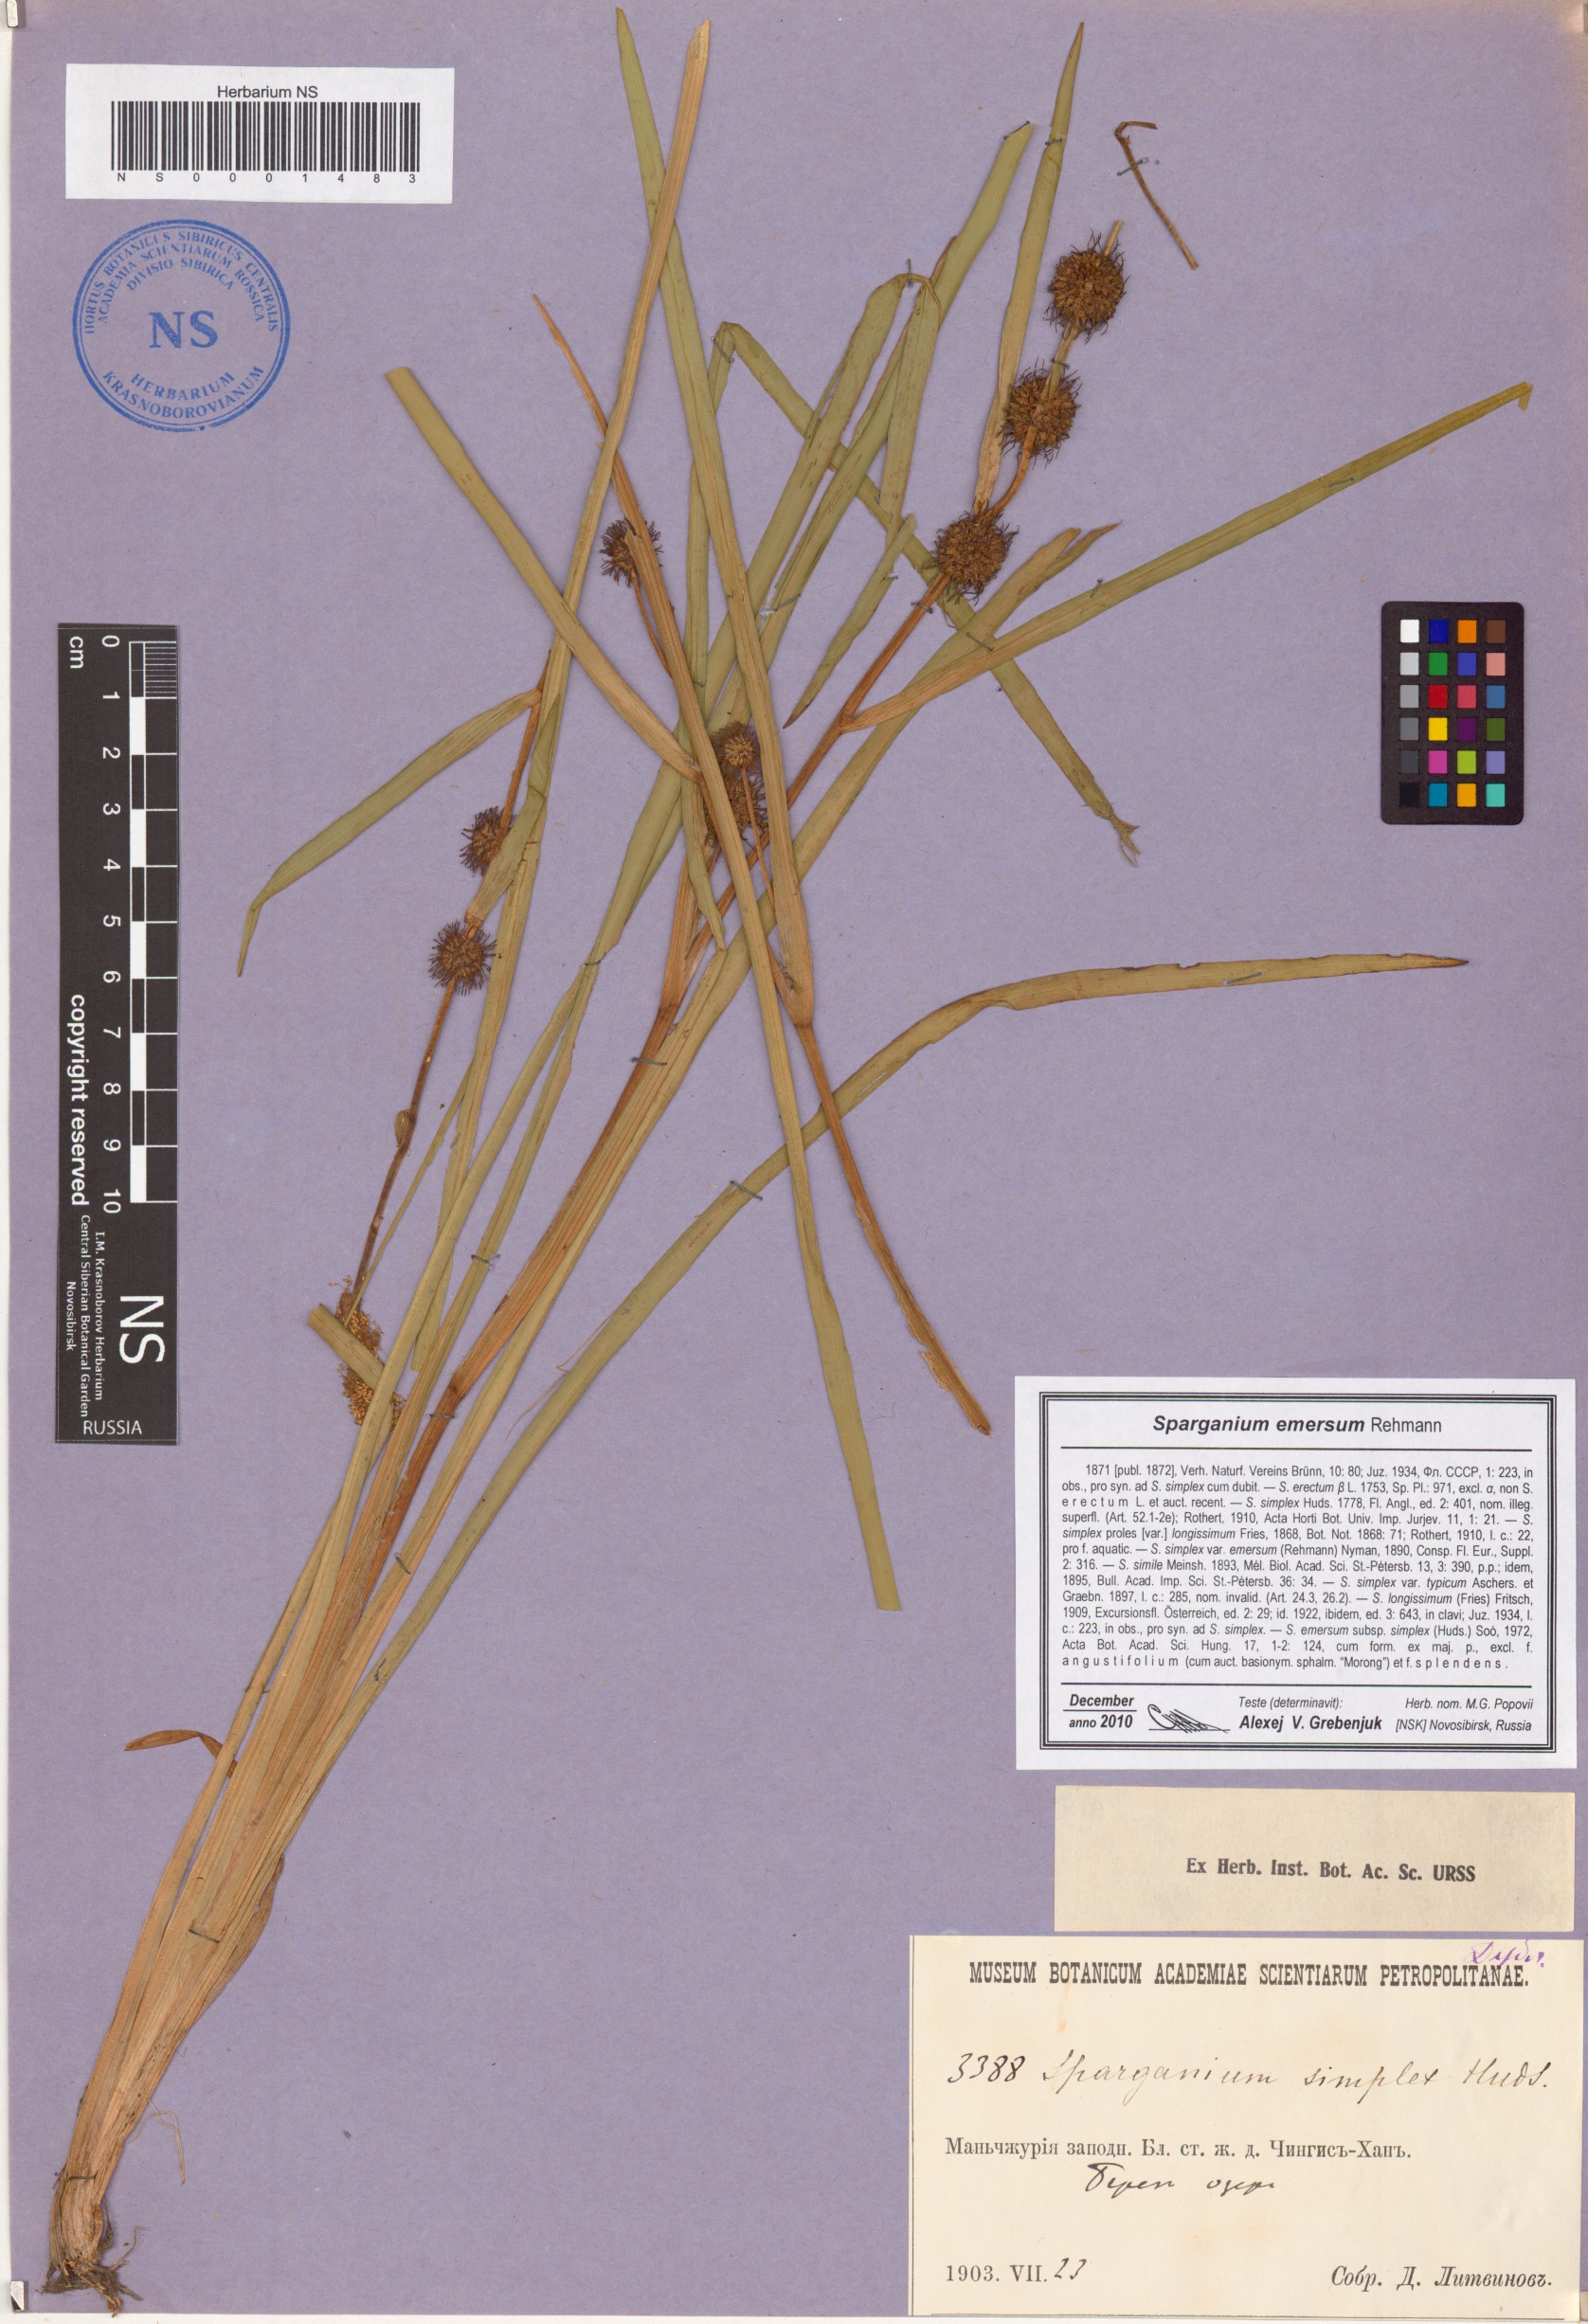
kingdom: Plantae
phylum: Tracheophyta
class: Liliopsida
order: Poales
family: Typhaceae
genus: Sparganium
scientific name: Sparganium emersum
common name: Unbranched bur-reed
